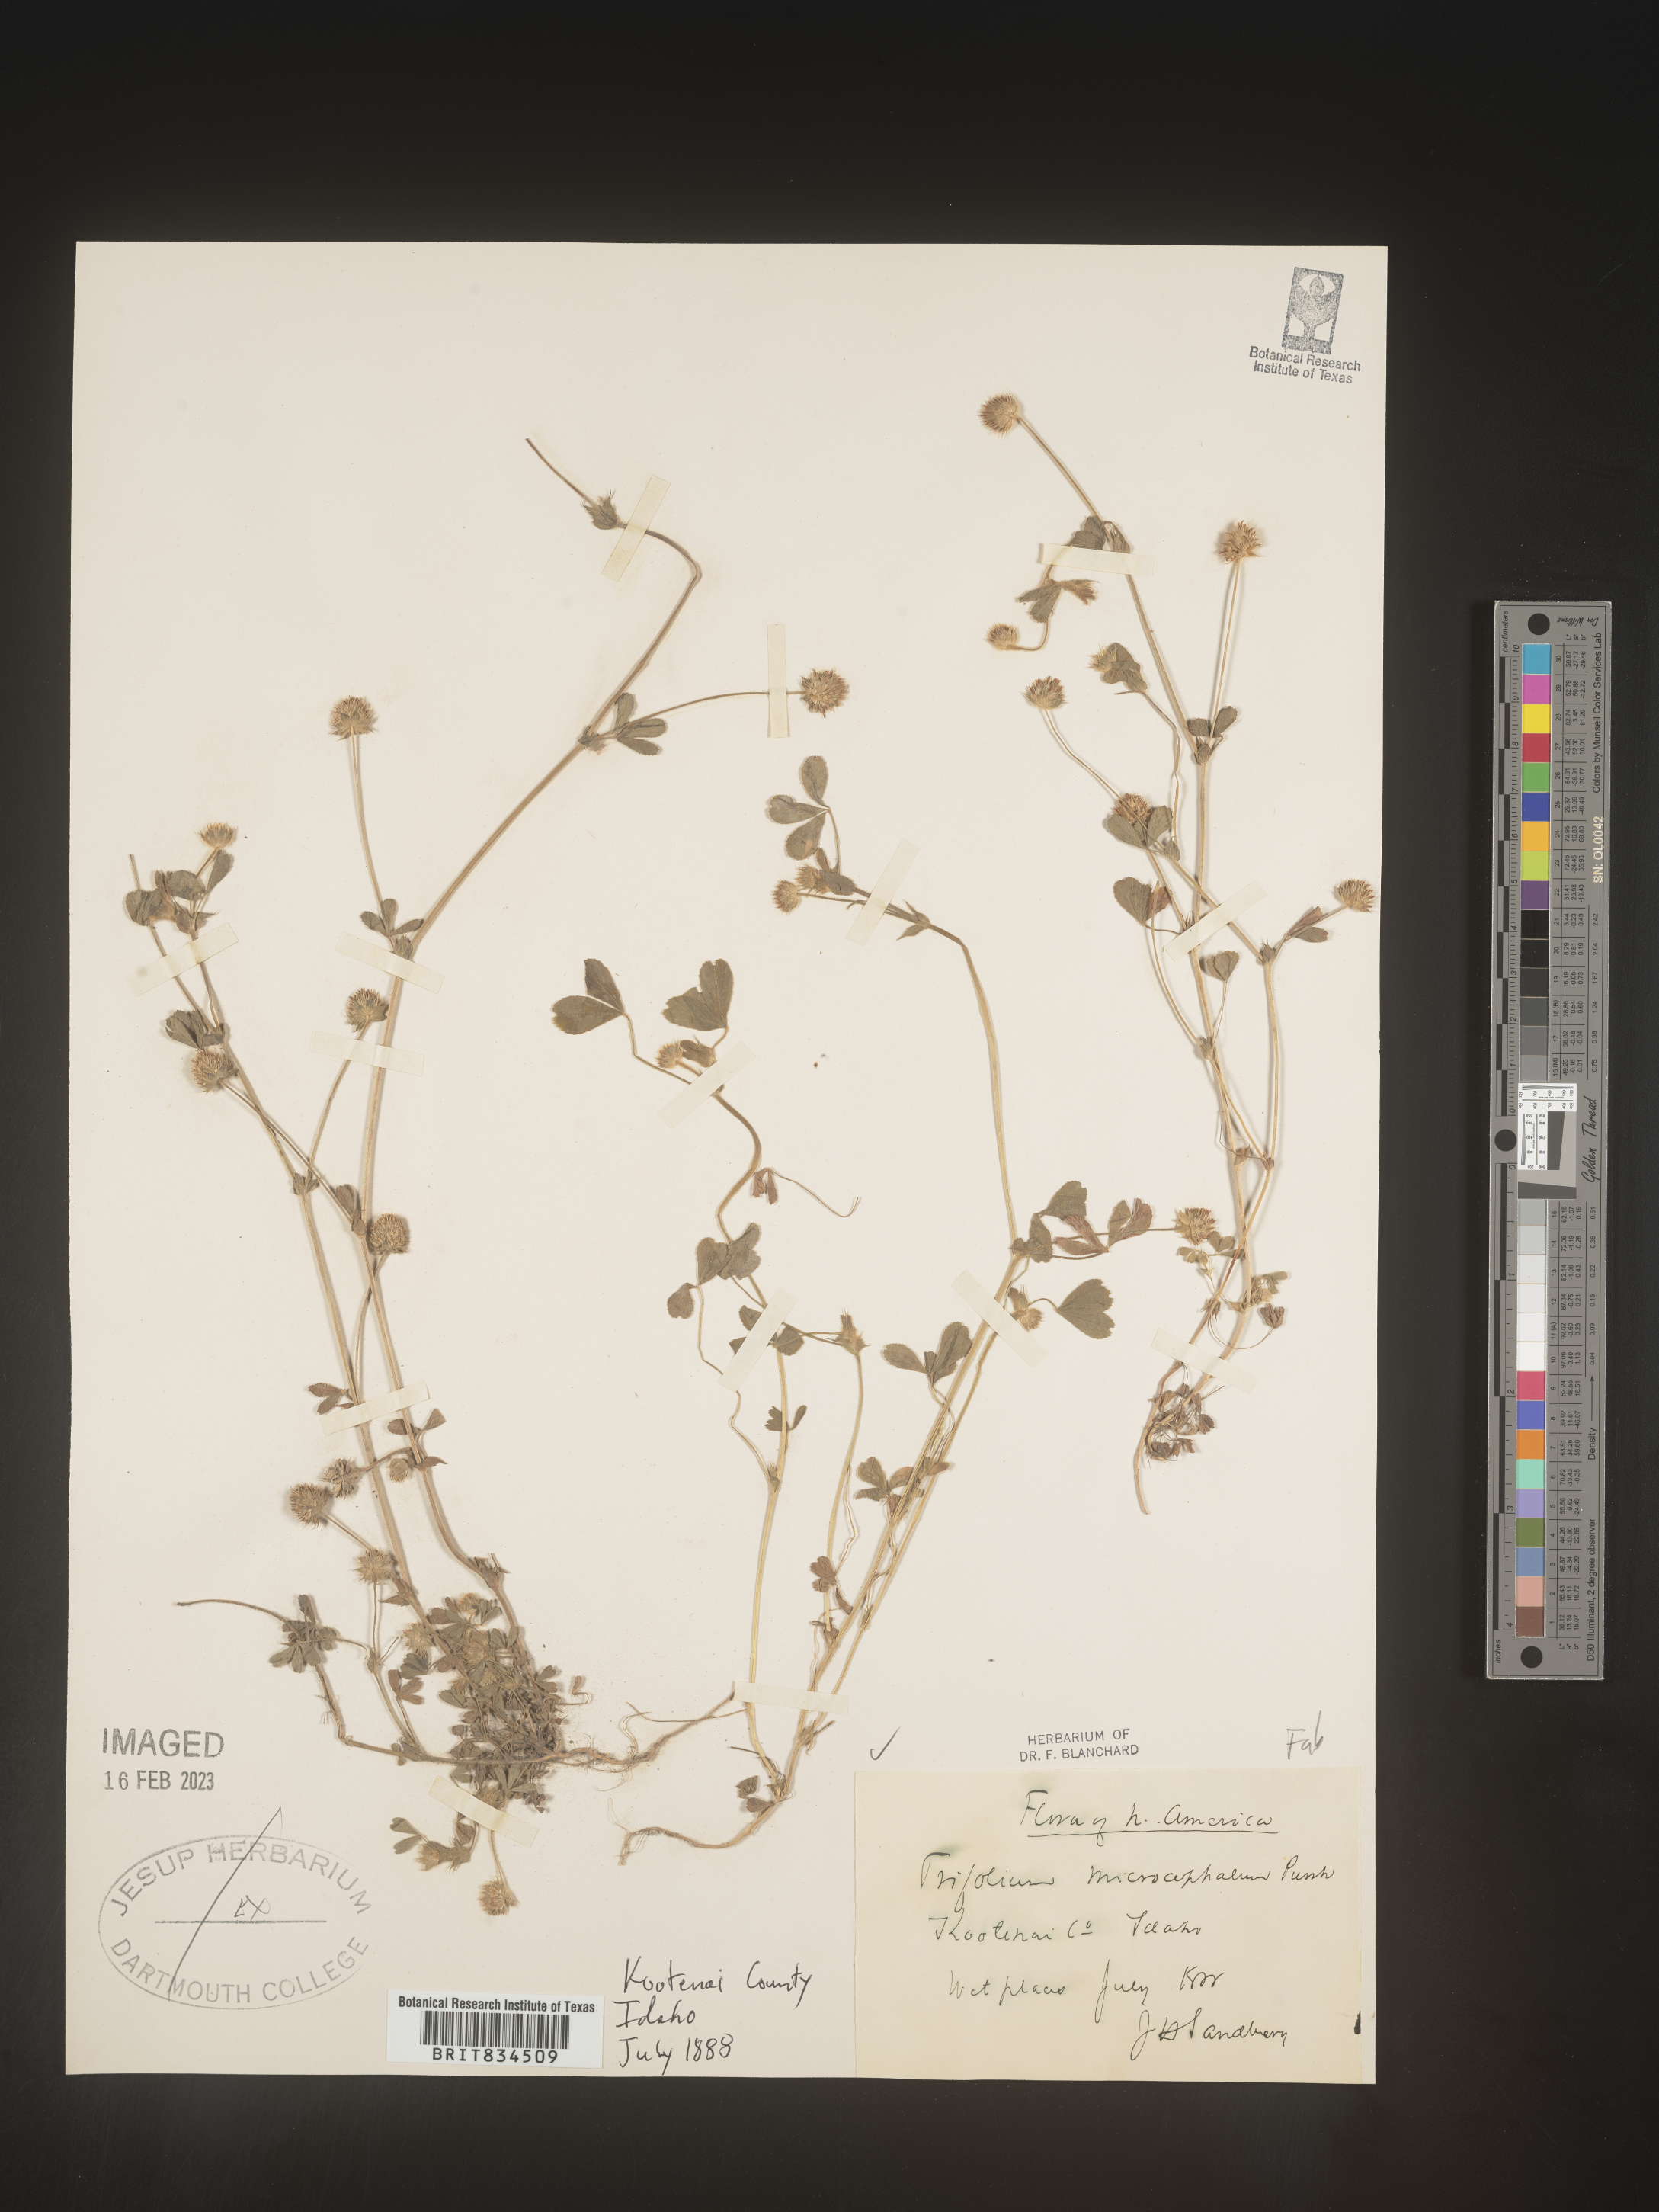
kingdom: Plantae
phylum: Tracheophyta
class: Magnoliopsida
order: Fabales
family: Fabaceae
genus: Trifolium
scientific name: Trifolium
